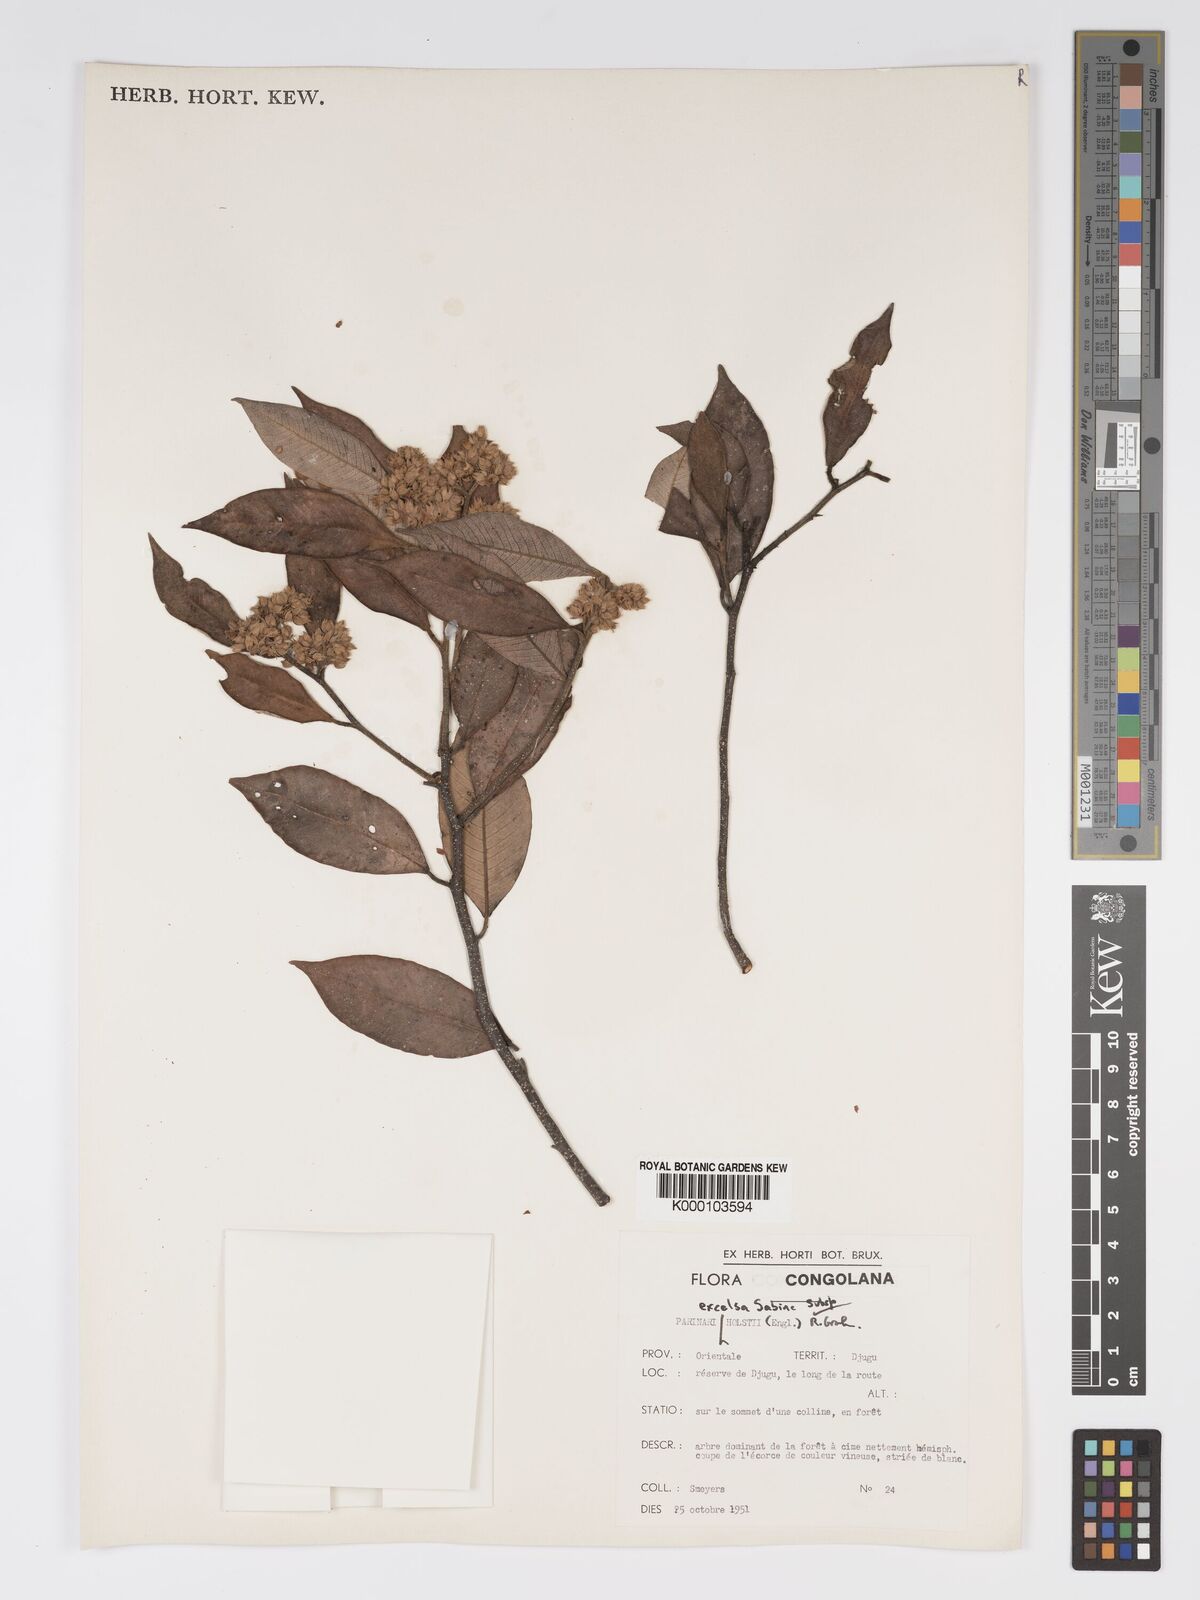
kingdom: Plantae
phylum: Tracheophyta
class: Magnoliopsida
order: Malpighiales
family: Chrysobalanaceae
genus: Parinari
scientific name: Parinari excelsa
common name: Guinea-plum
